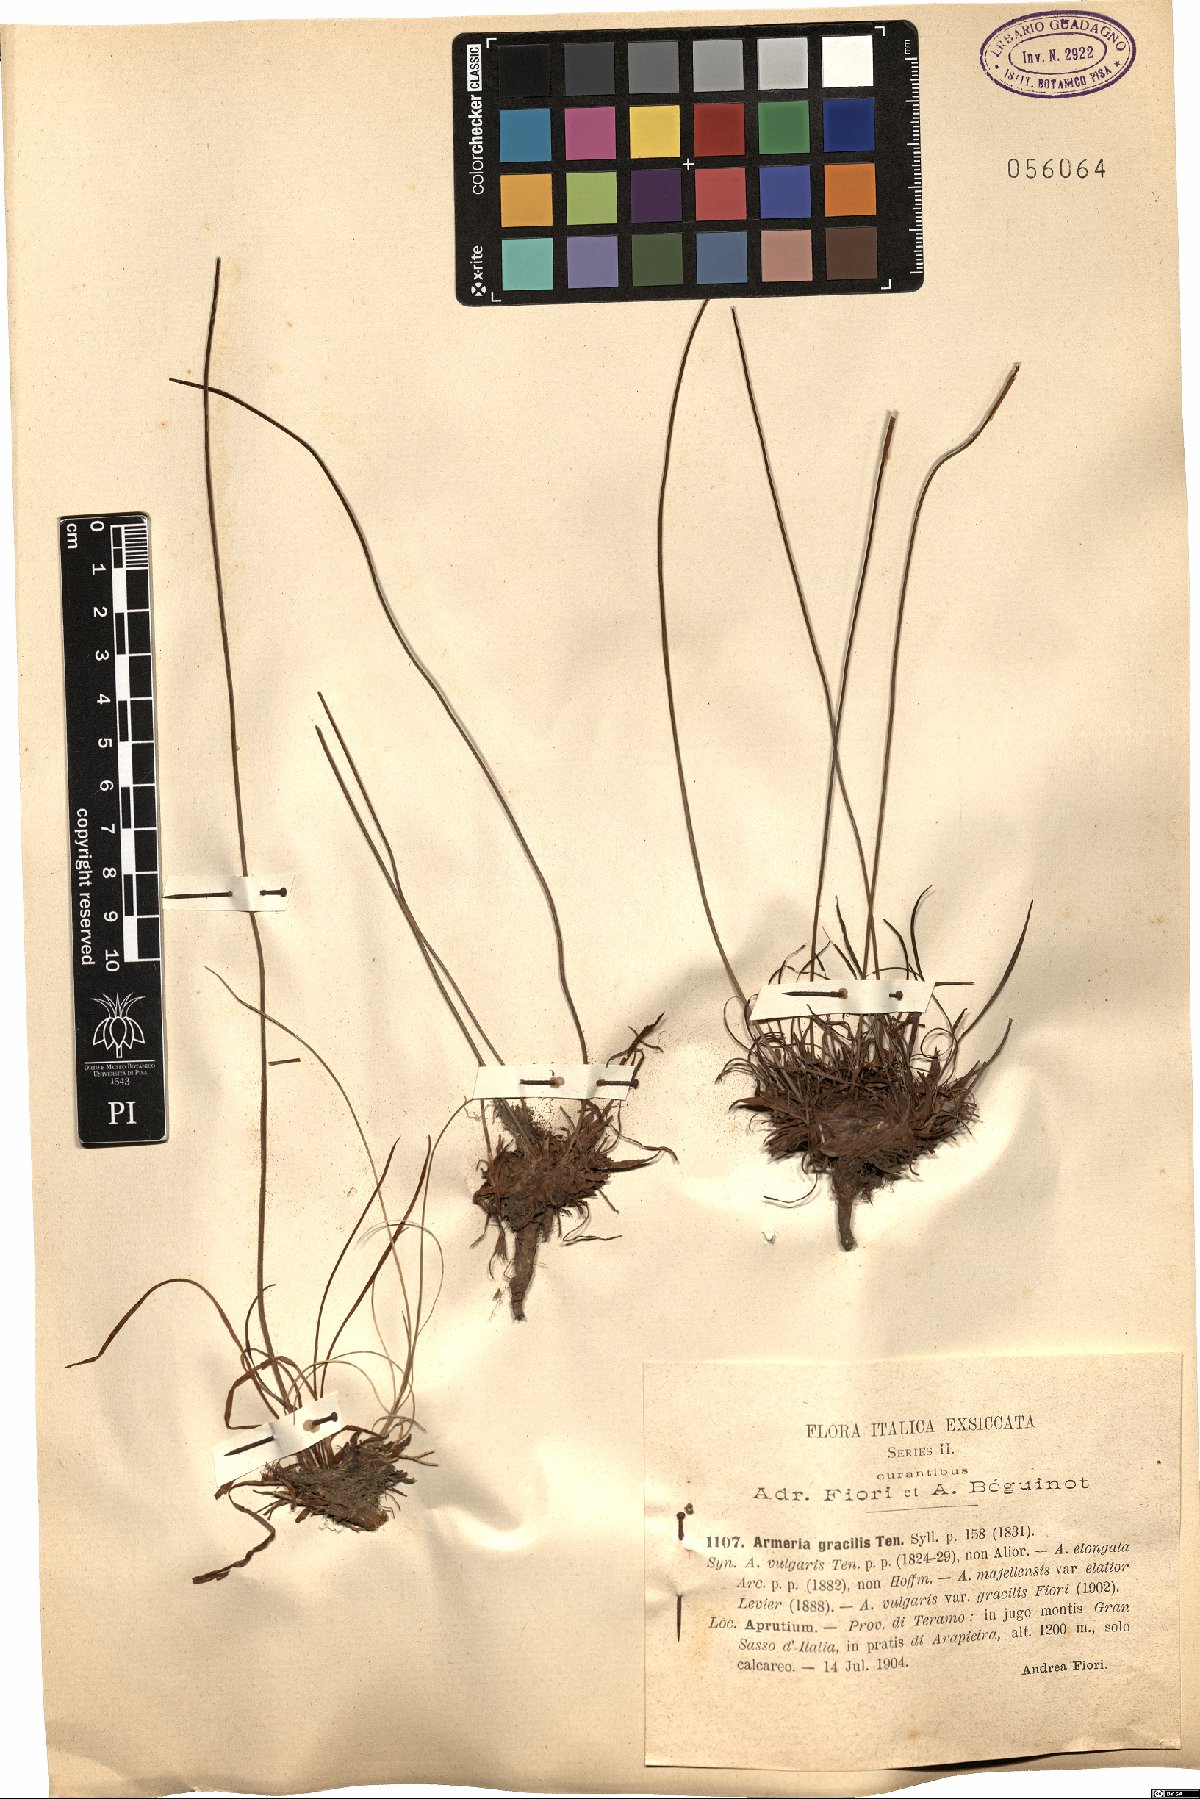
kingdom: Plantae
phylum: Tracheophyta
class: Magnoliopsida
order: Caryophyllales
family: Plumbaginaceae
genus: Armeria
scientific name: Armeria nebrodensis
